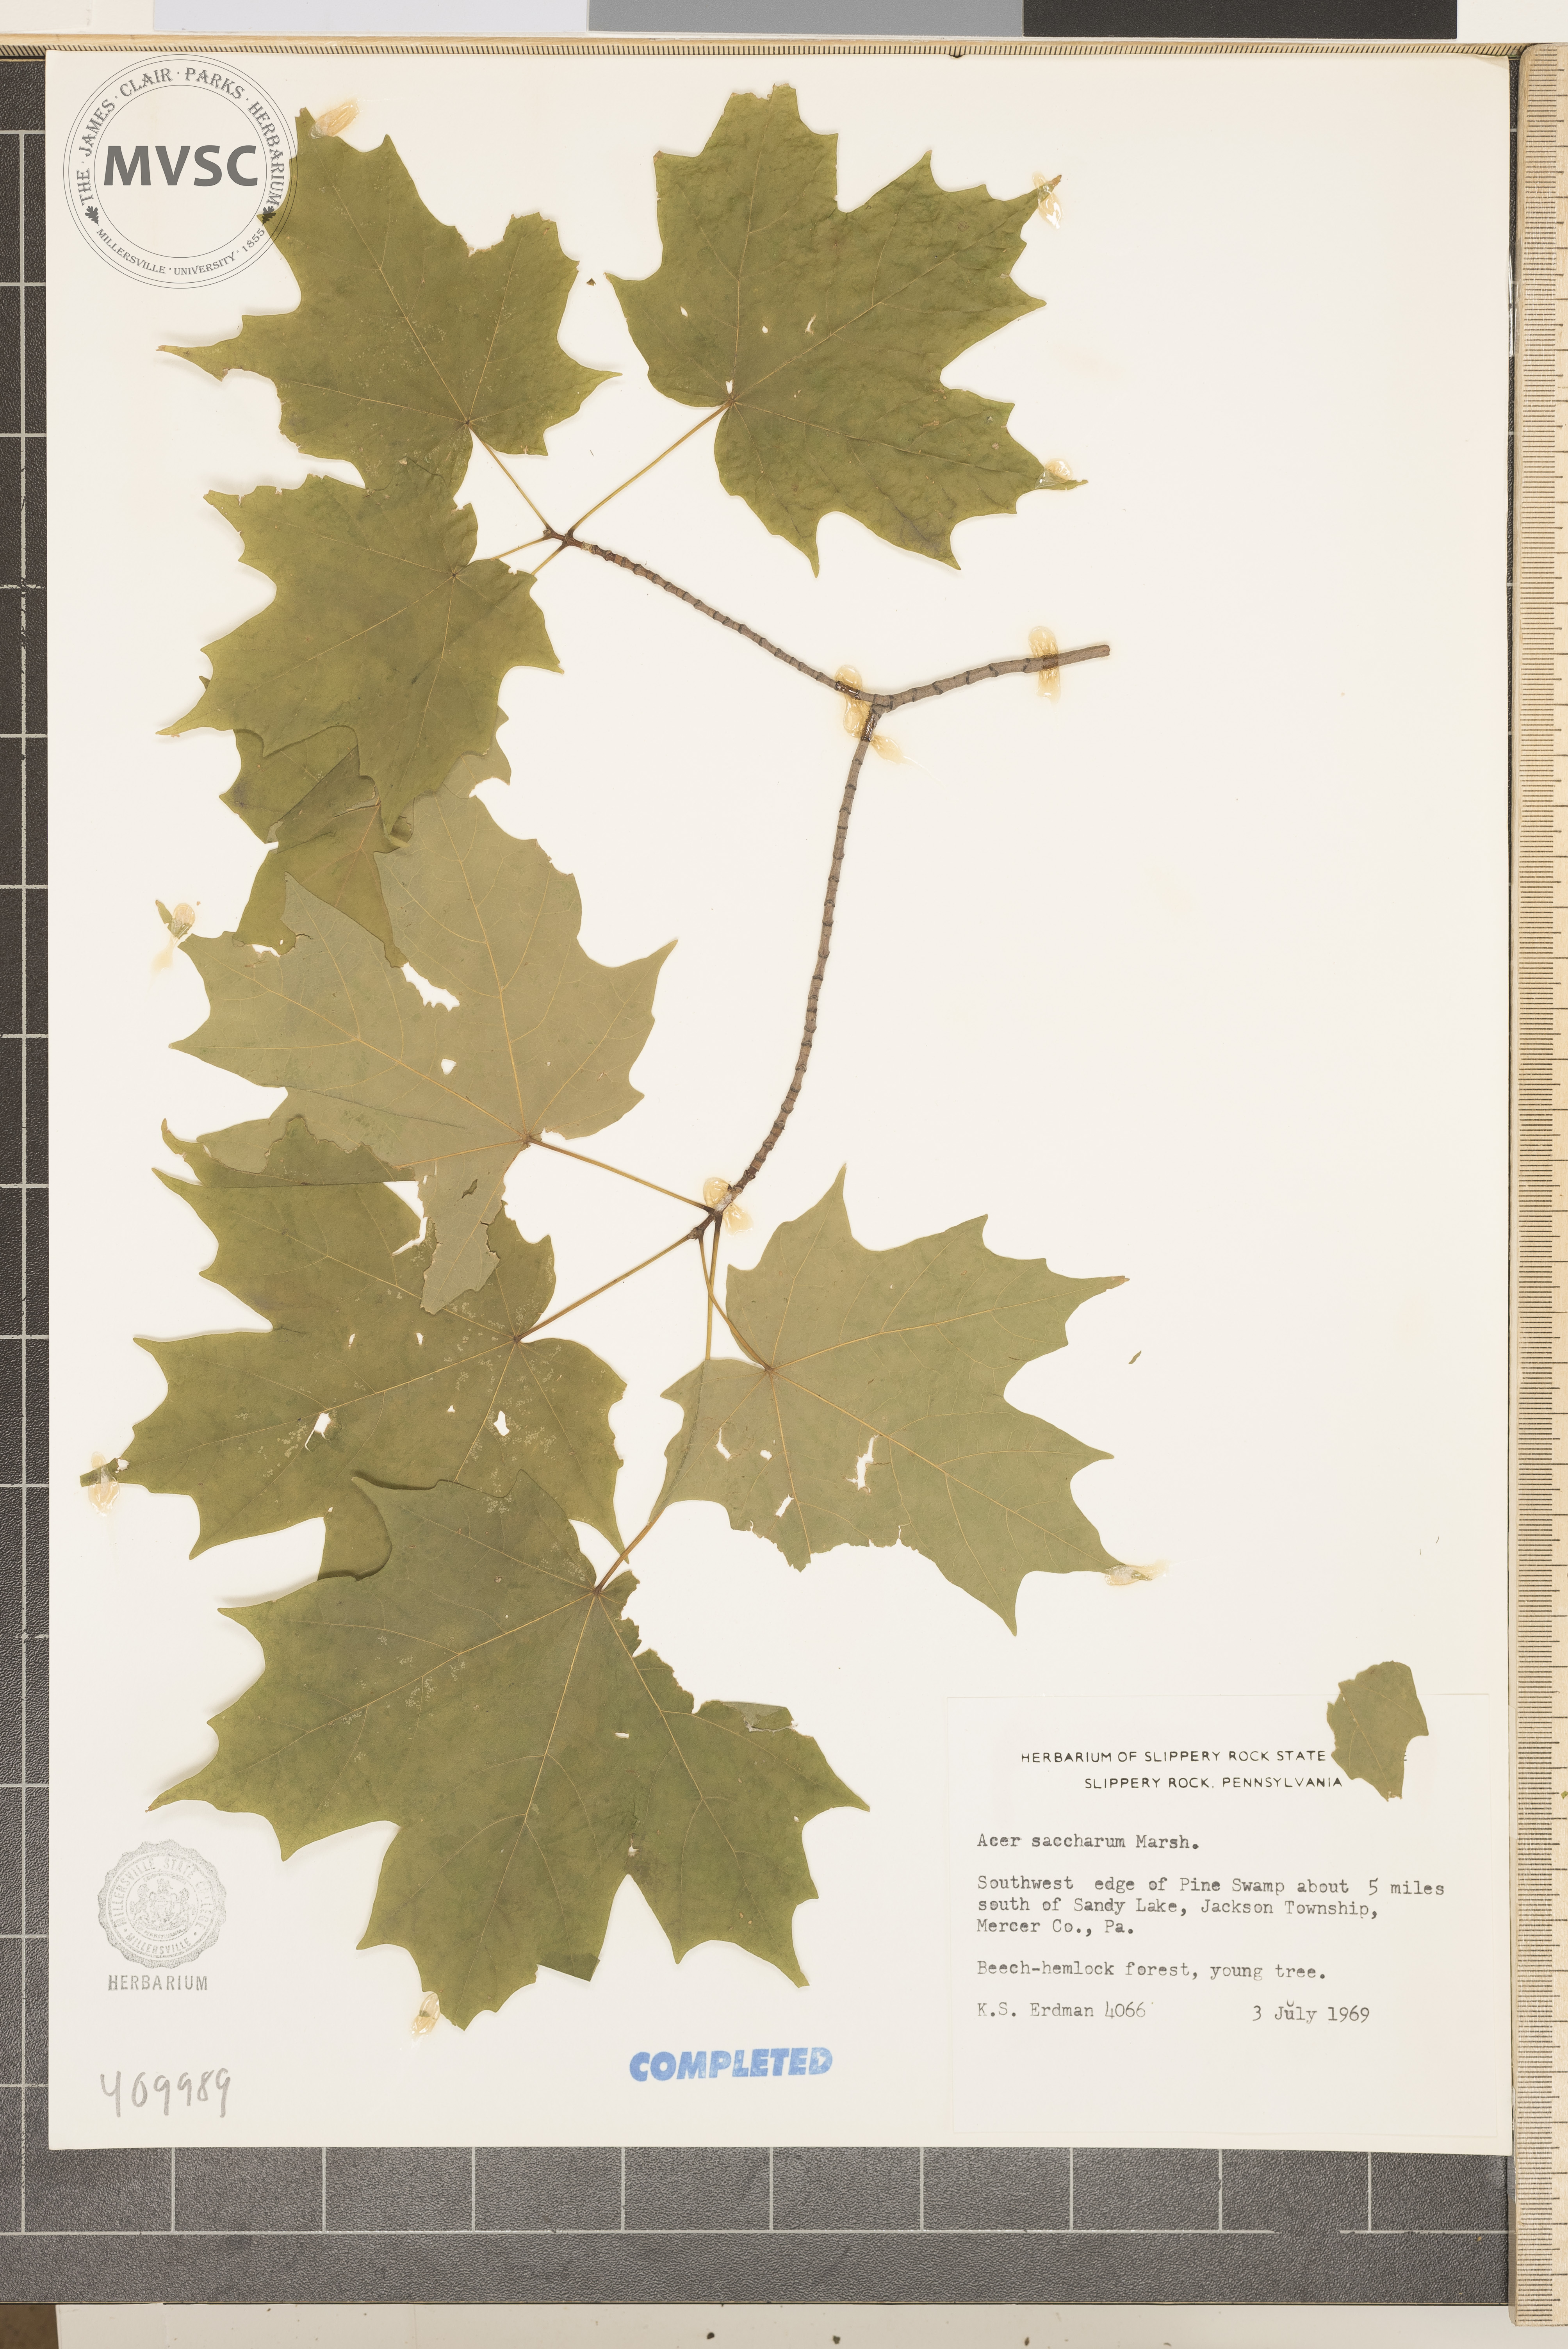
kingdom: Plantae
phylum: Tracheophyta
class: Magnoliopsida
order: Sapindales
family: Sapindaceae
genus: Acer
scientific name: Acer saccharum
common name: Sugar maple
